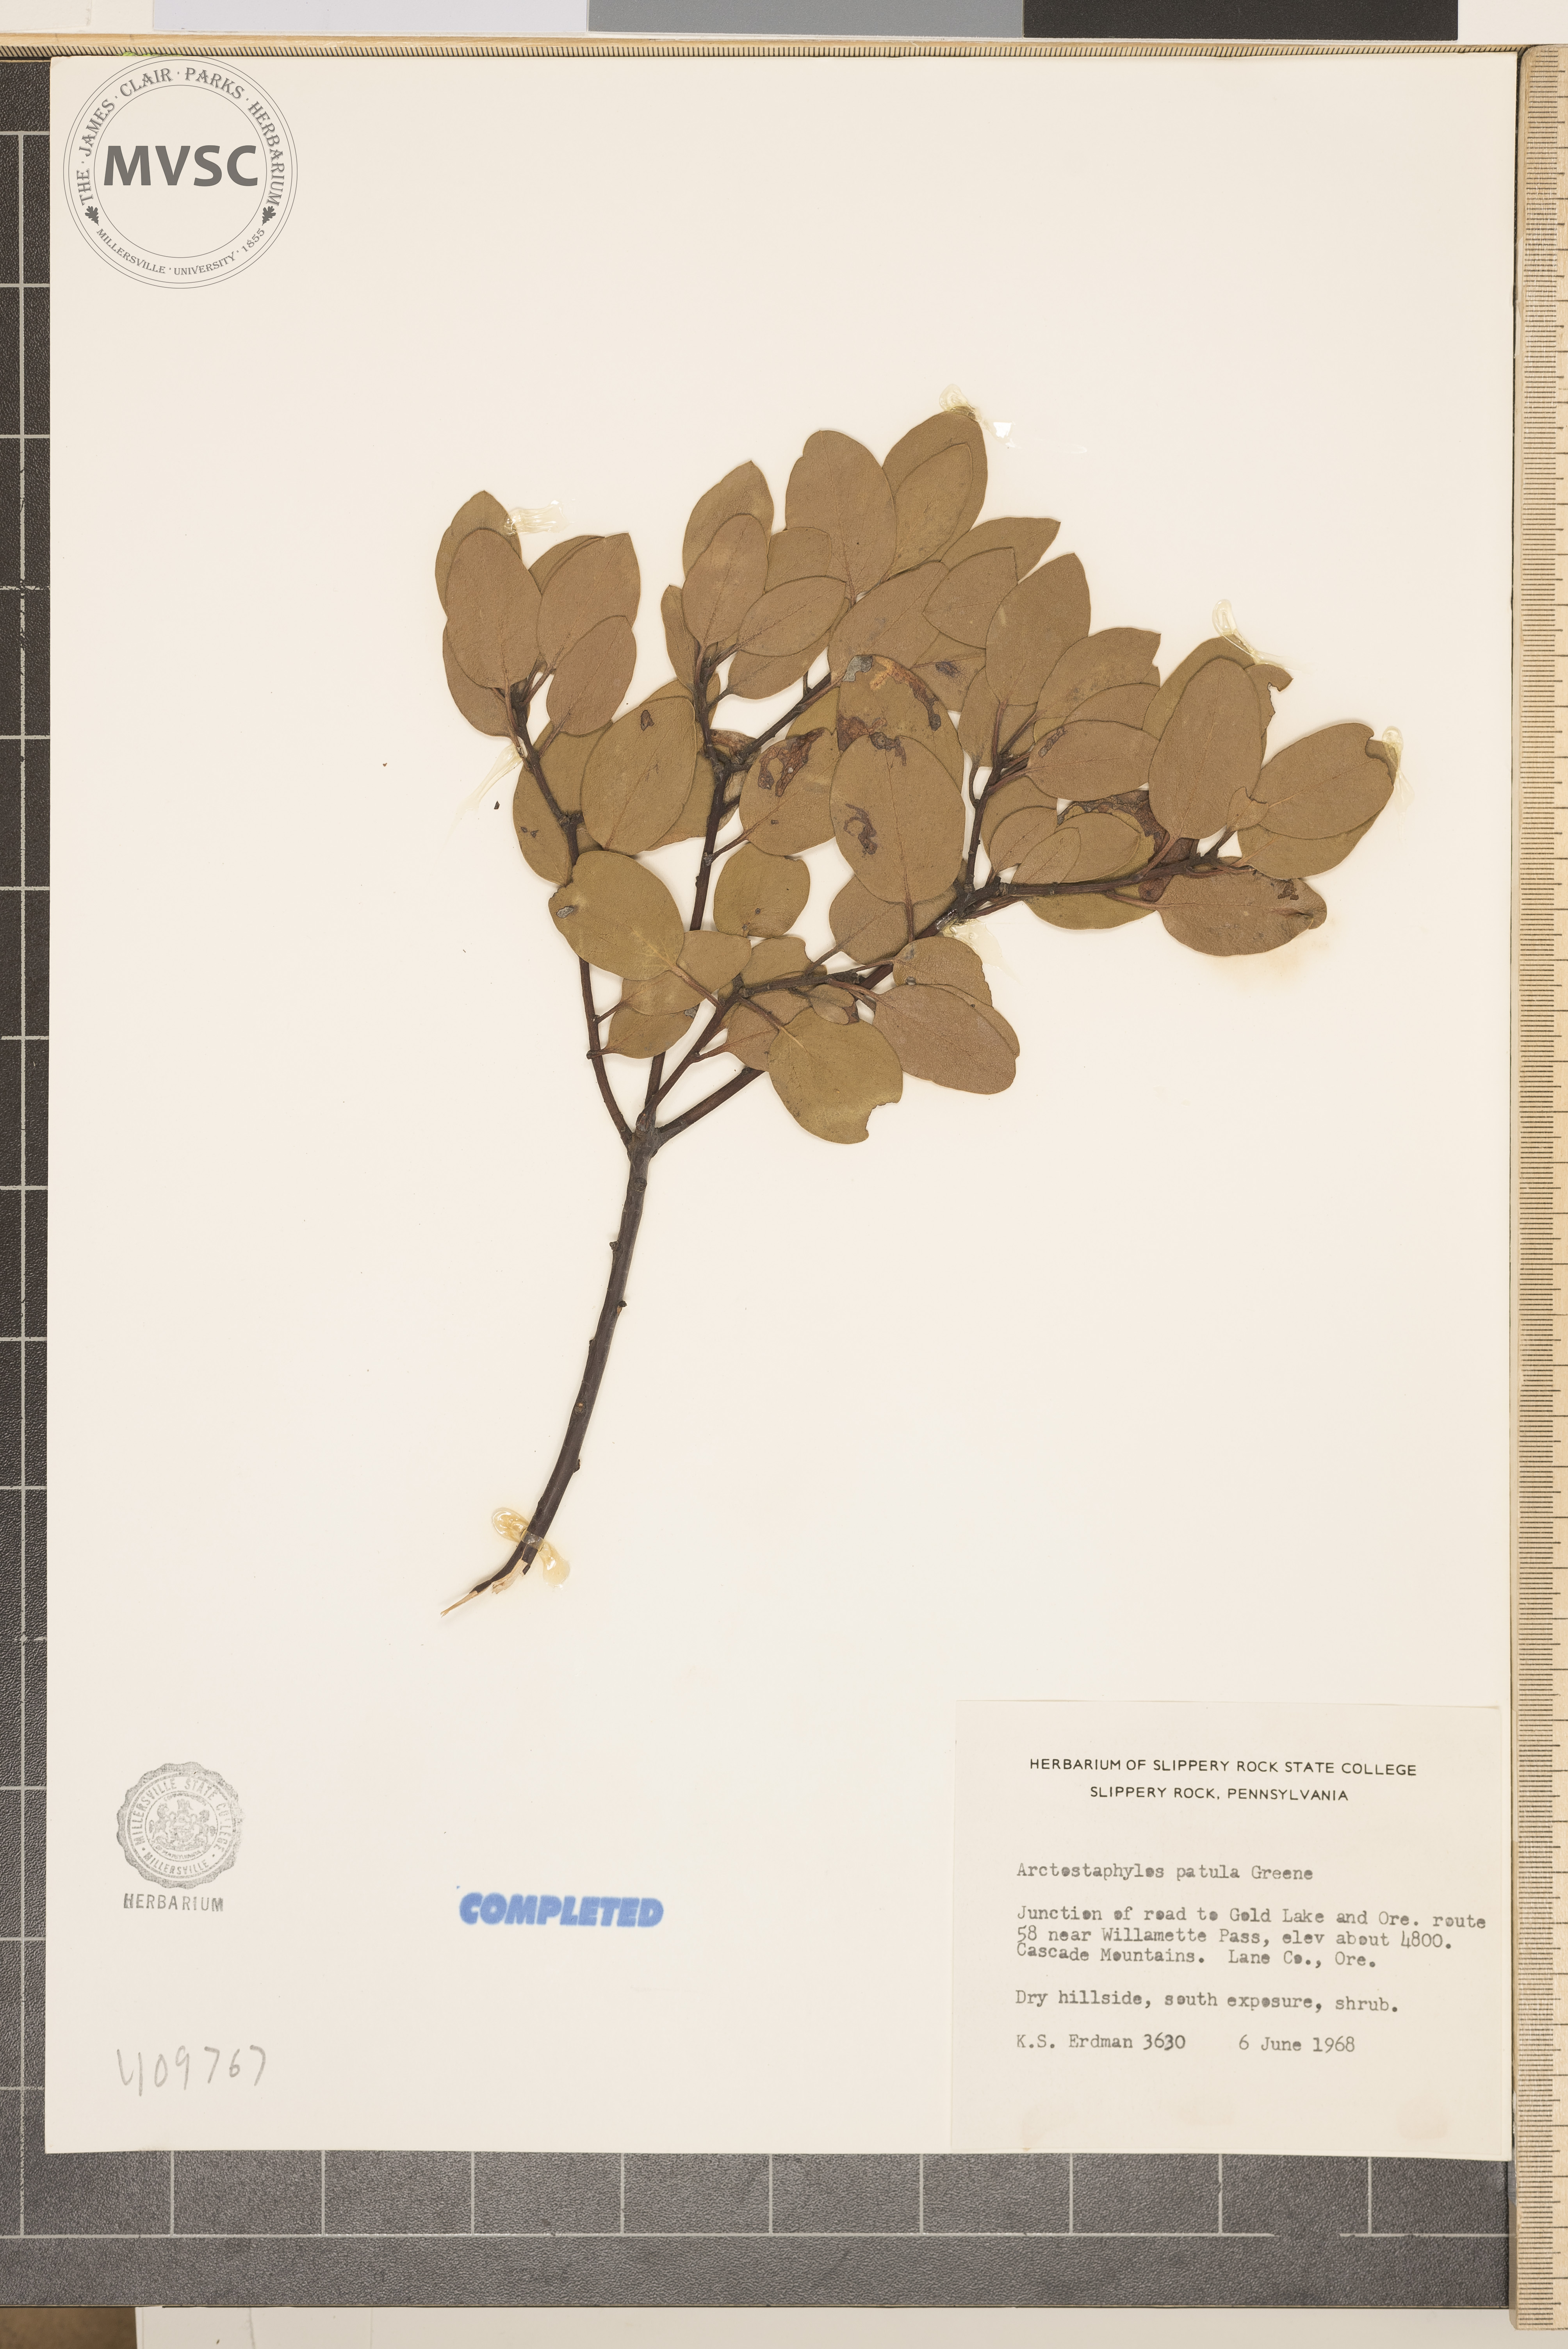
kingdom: Plantae
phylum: Tracheophyta
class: Magnoliopsida
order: Ericales
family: Ericaceae
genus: Arctostaphylos
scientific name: Arctostaphylos patula
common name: Green-leaf manzanita
